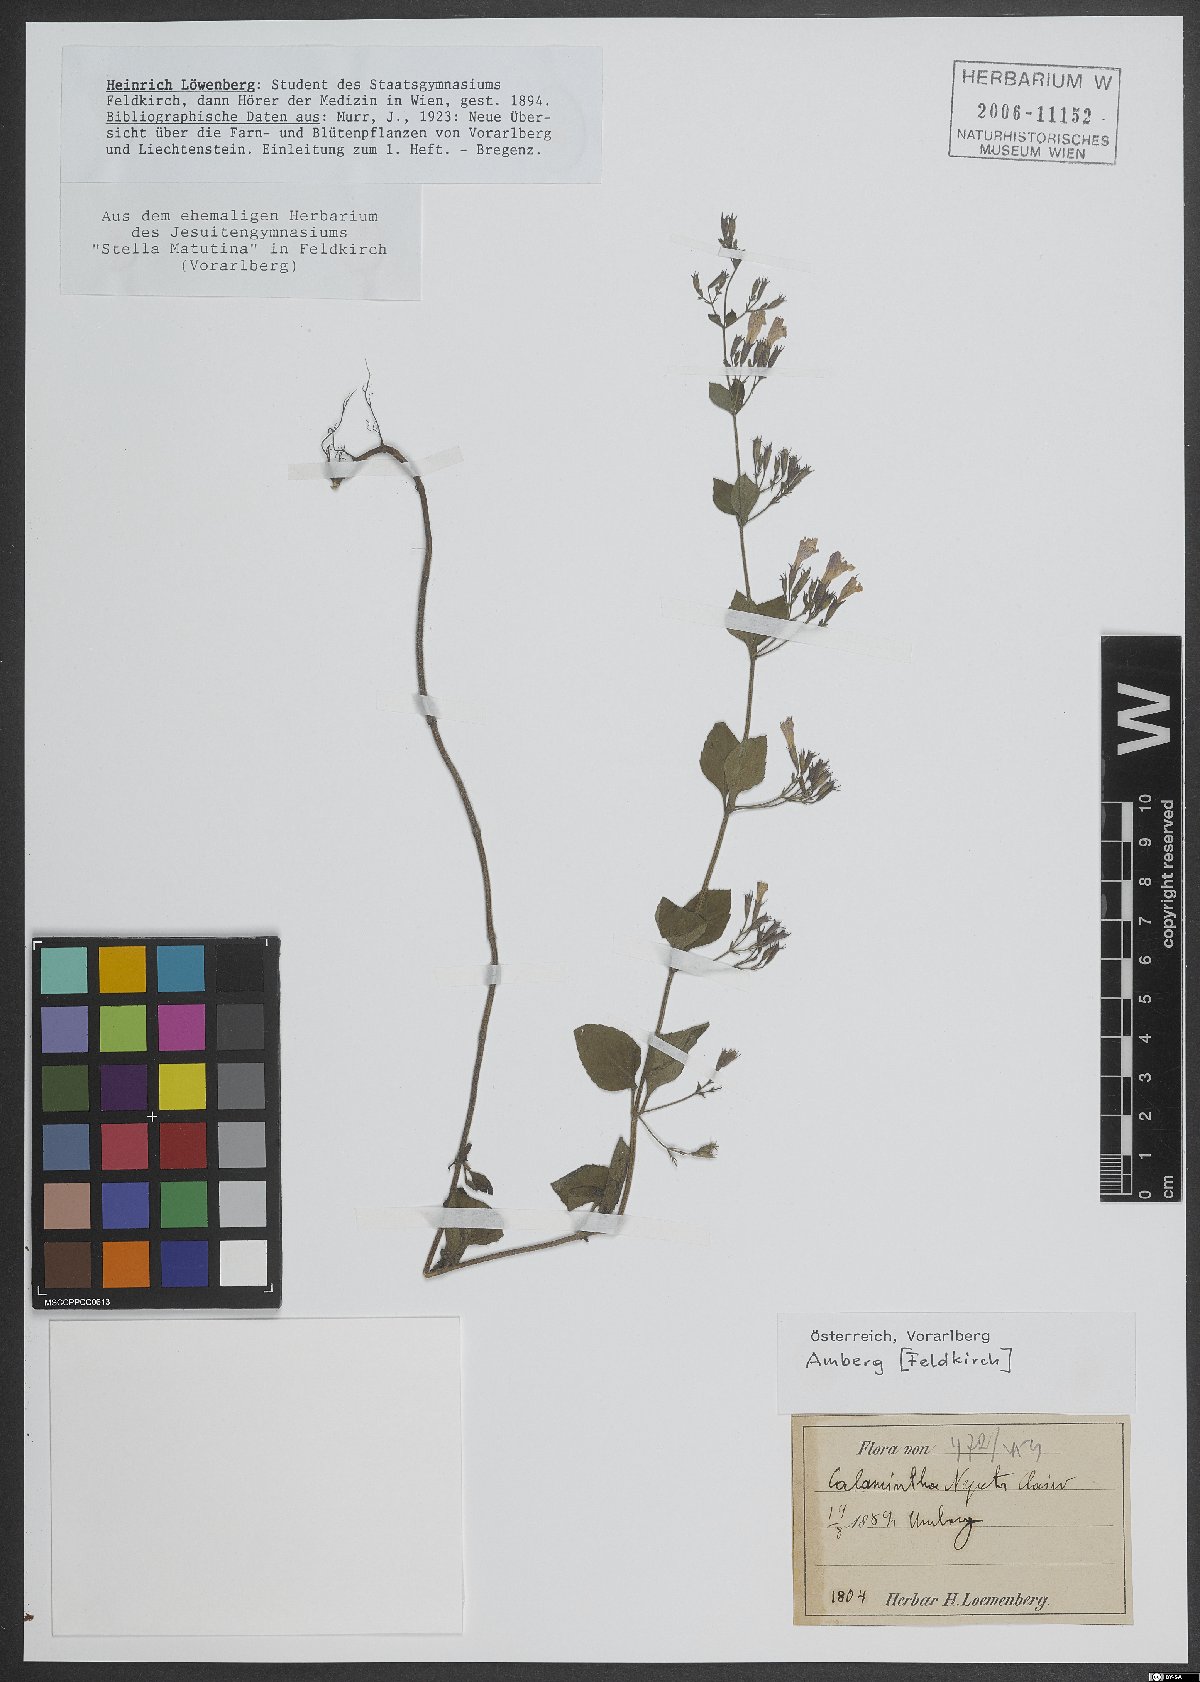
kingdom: Plantae
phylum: Tracheophyta
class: Magnoliopsida
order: Lamiales
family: Lamiaceae
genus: Clinopodium
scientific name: Clinopodium nepeta
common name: Lesser calamint
